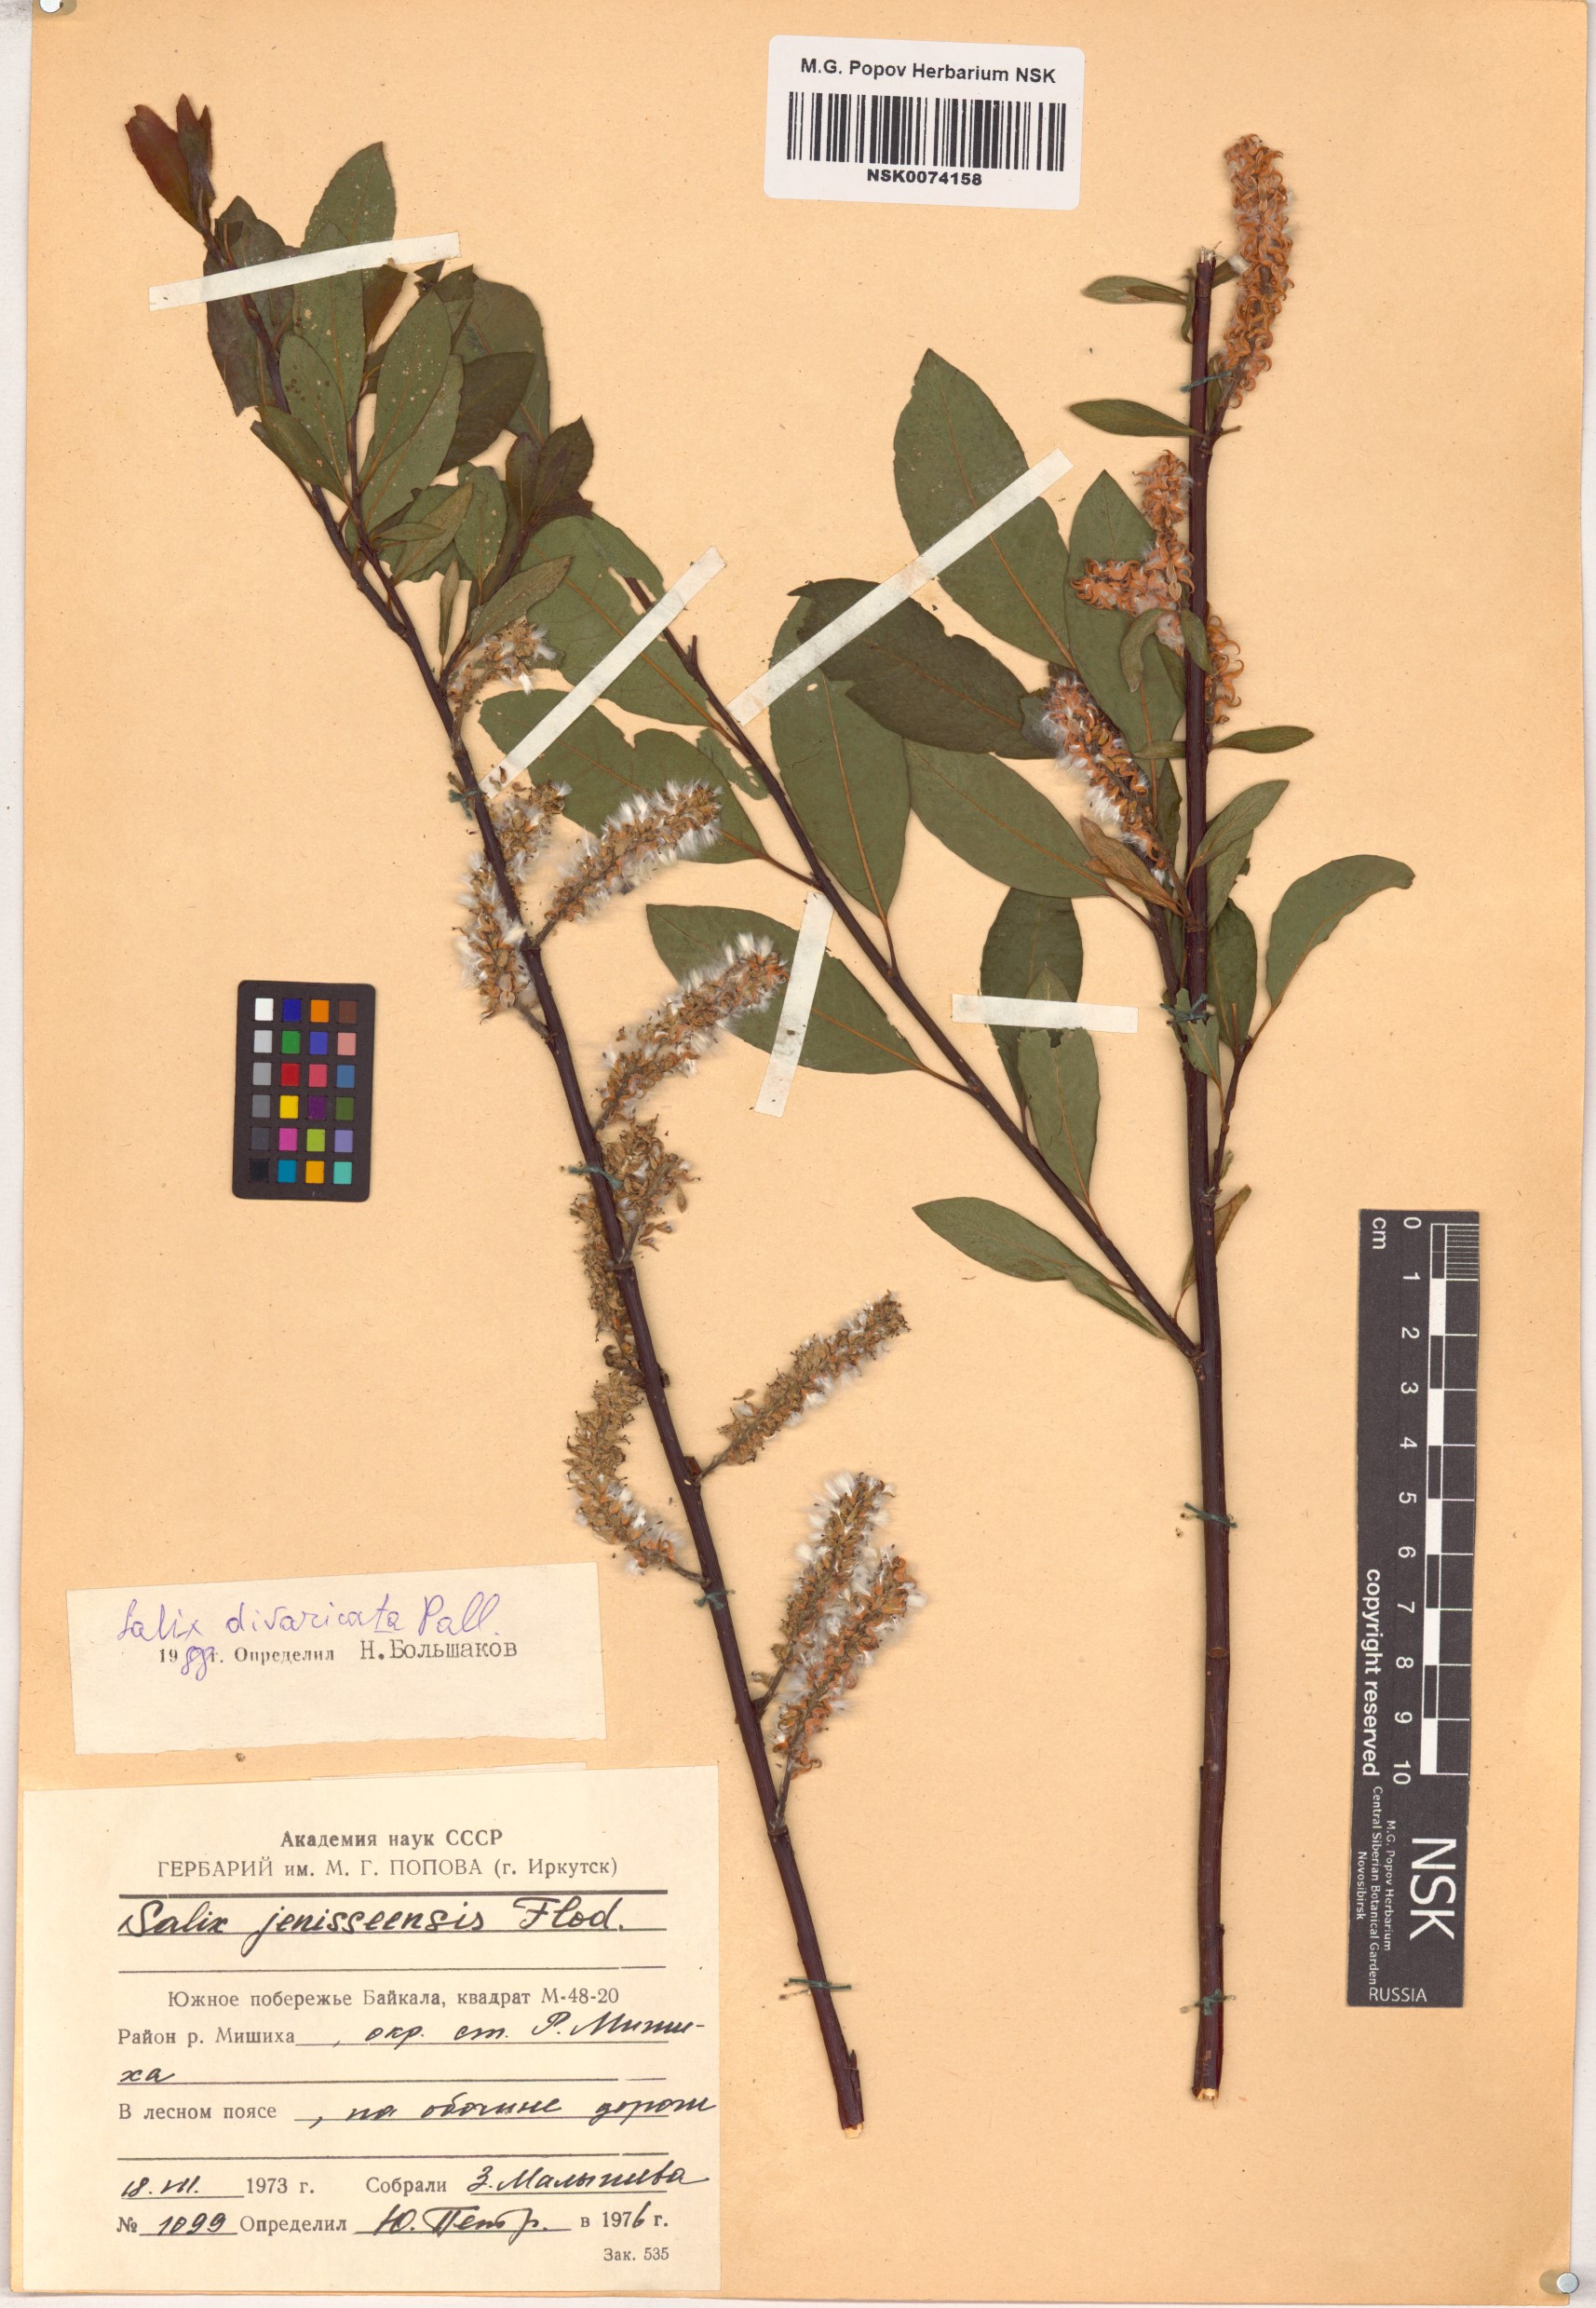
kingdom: Plantae
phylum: Tracheophyta
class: Magnoliopsida
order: Malpighiales
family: Salicaceae
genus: Salix
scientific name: Salix divaricata
